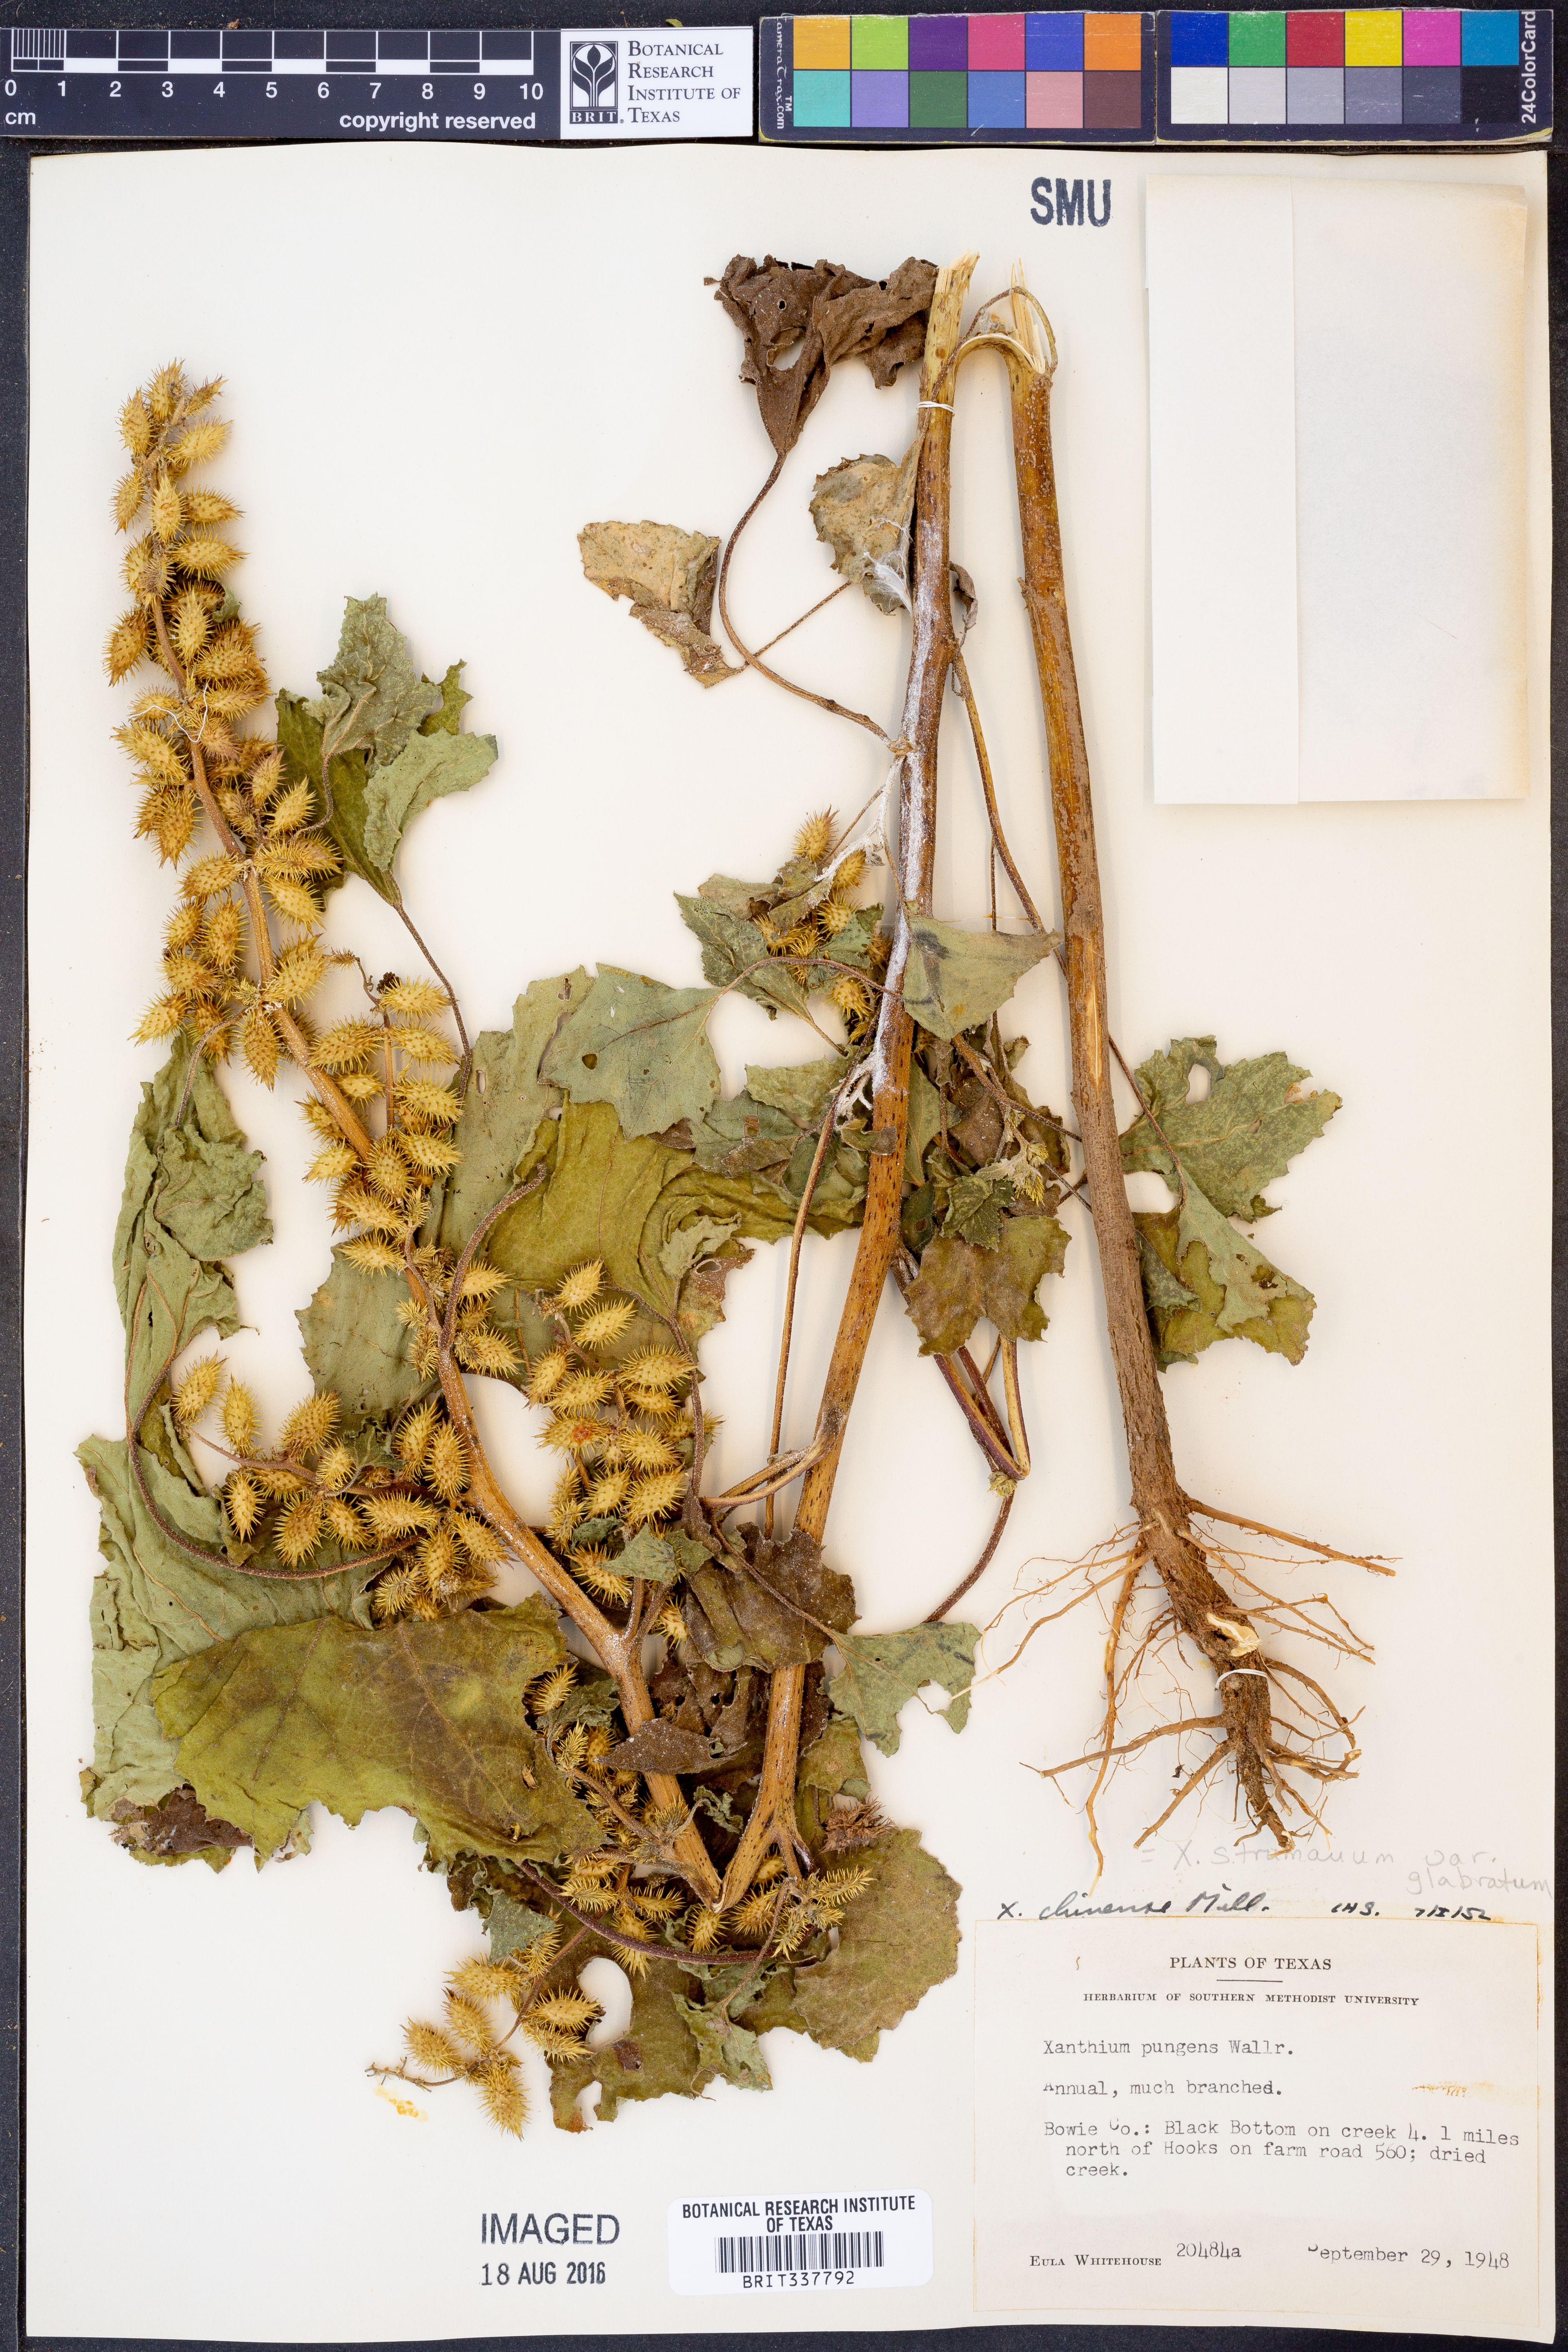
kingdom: Plantae
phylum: Tracheophyta
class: Magnoliopsida
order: Asterales
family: Asteraceae
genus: Xanthium
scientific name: Xanthium occidentale
